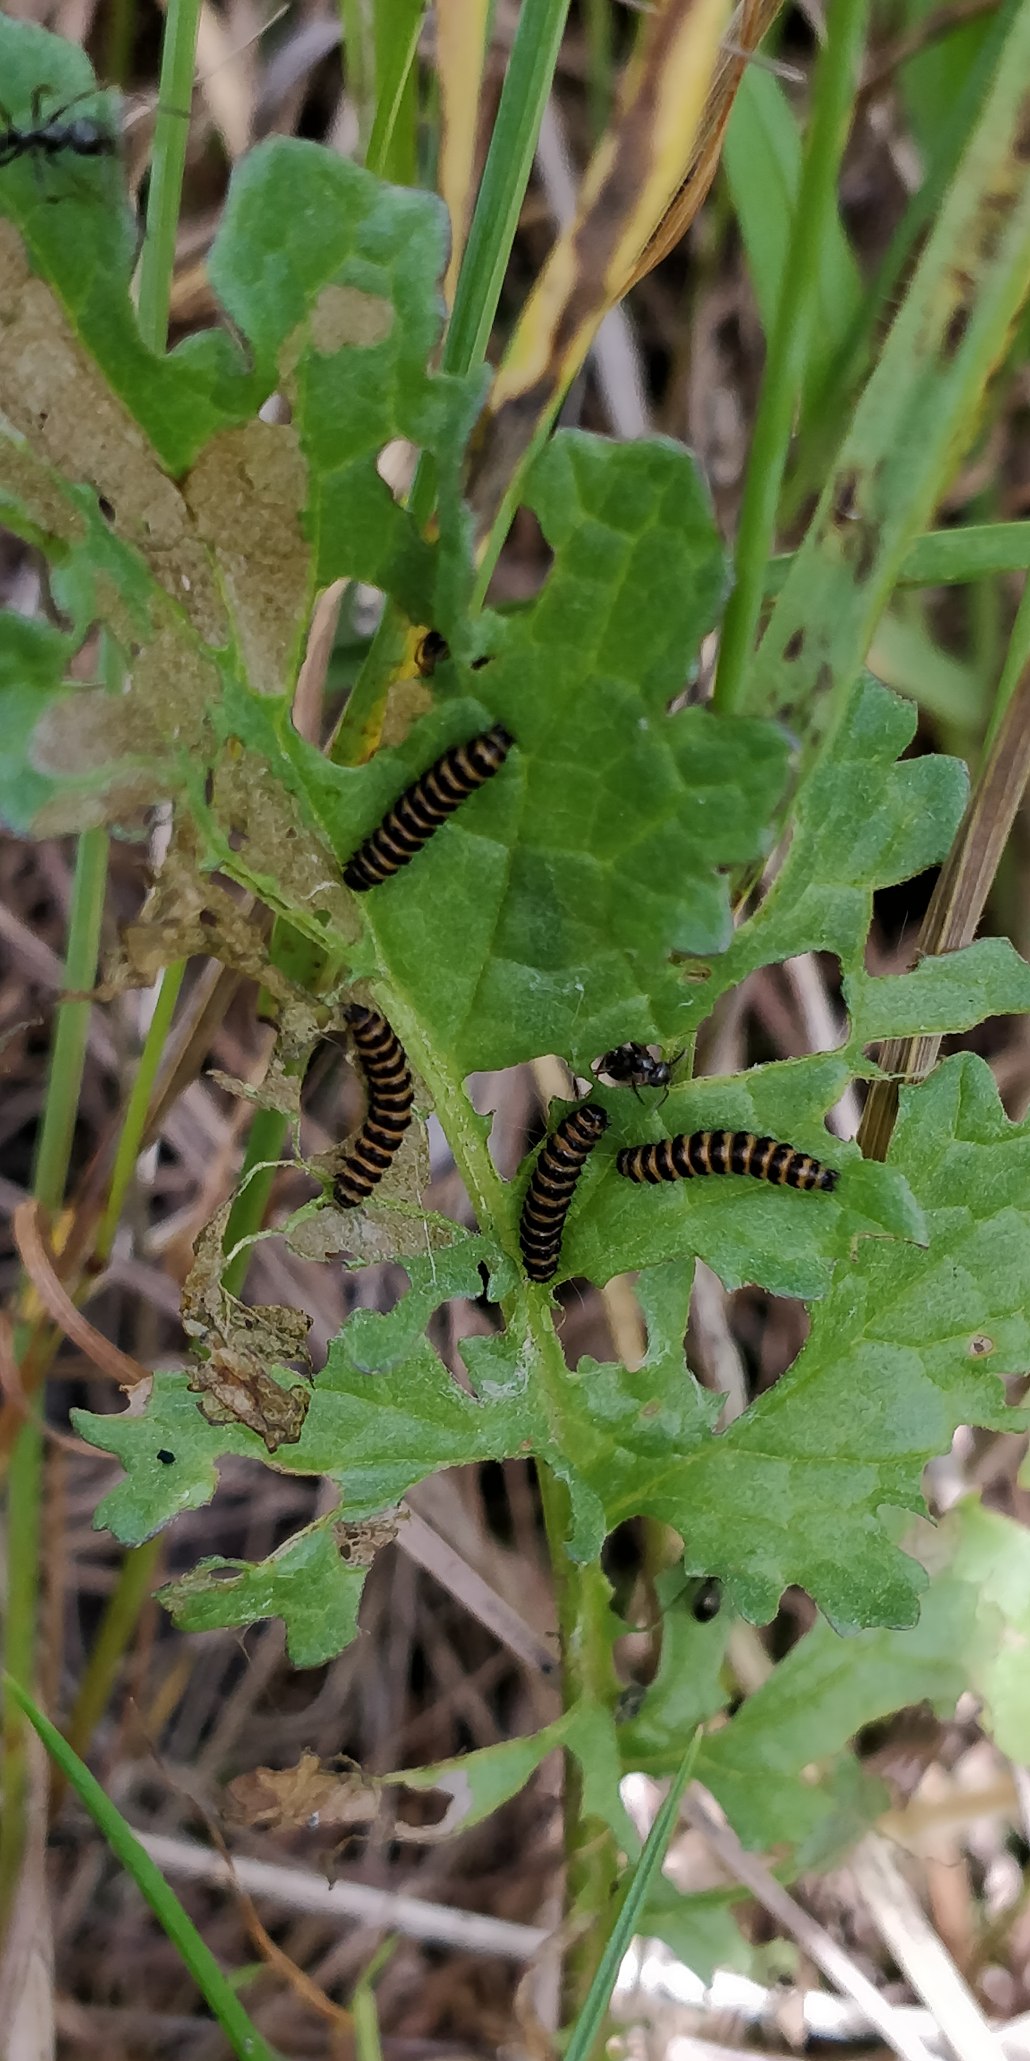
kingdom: Animalia
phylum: Arthropoda
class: Insecta
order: Lepidoptera
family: Erebidae
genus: Tyria
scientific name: Tyria jacobaeae
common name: Blodplet
